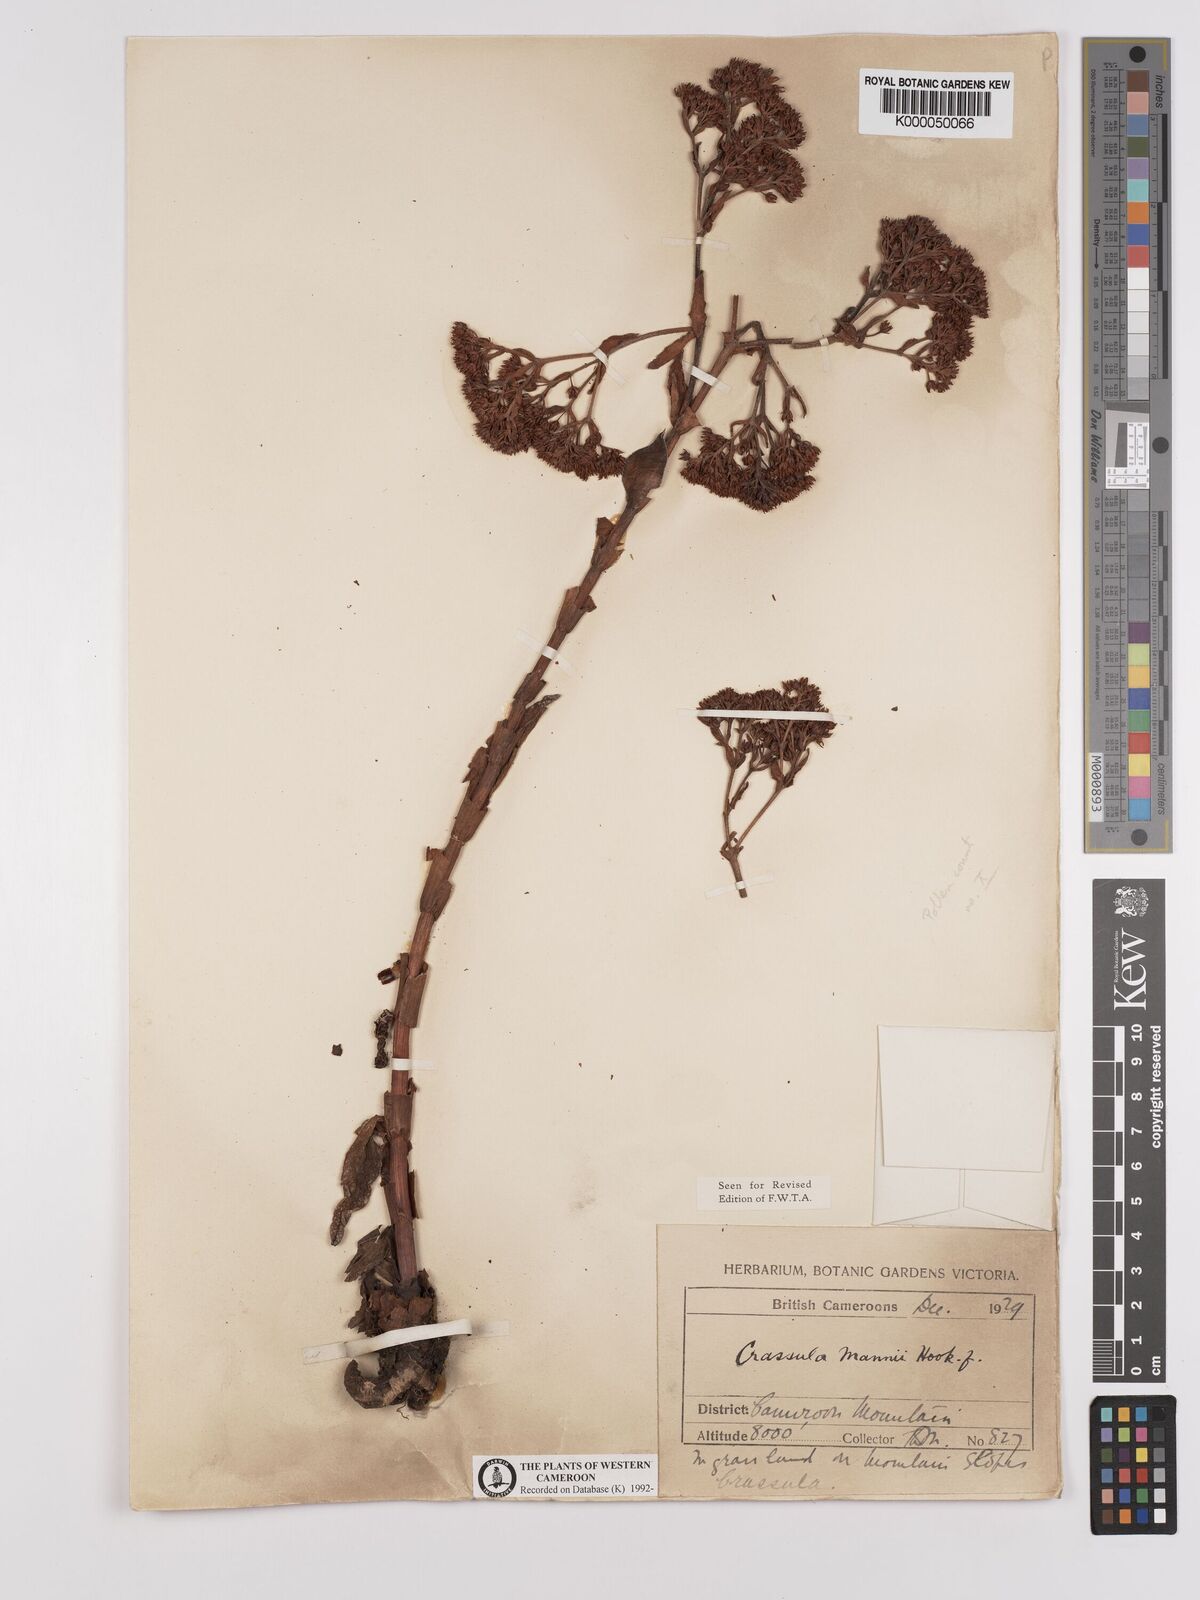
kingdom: Plantae
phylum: Tracheophyta
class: Magnoliopsida
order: Saxifragales
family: Crassulaceae
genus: Crassula
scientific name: Crassula vaginata
